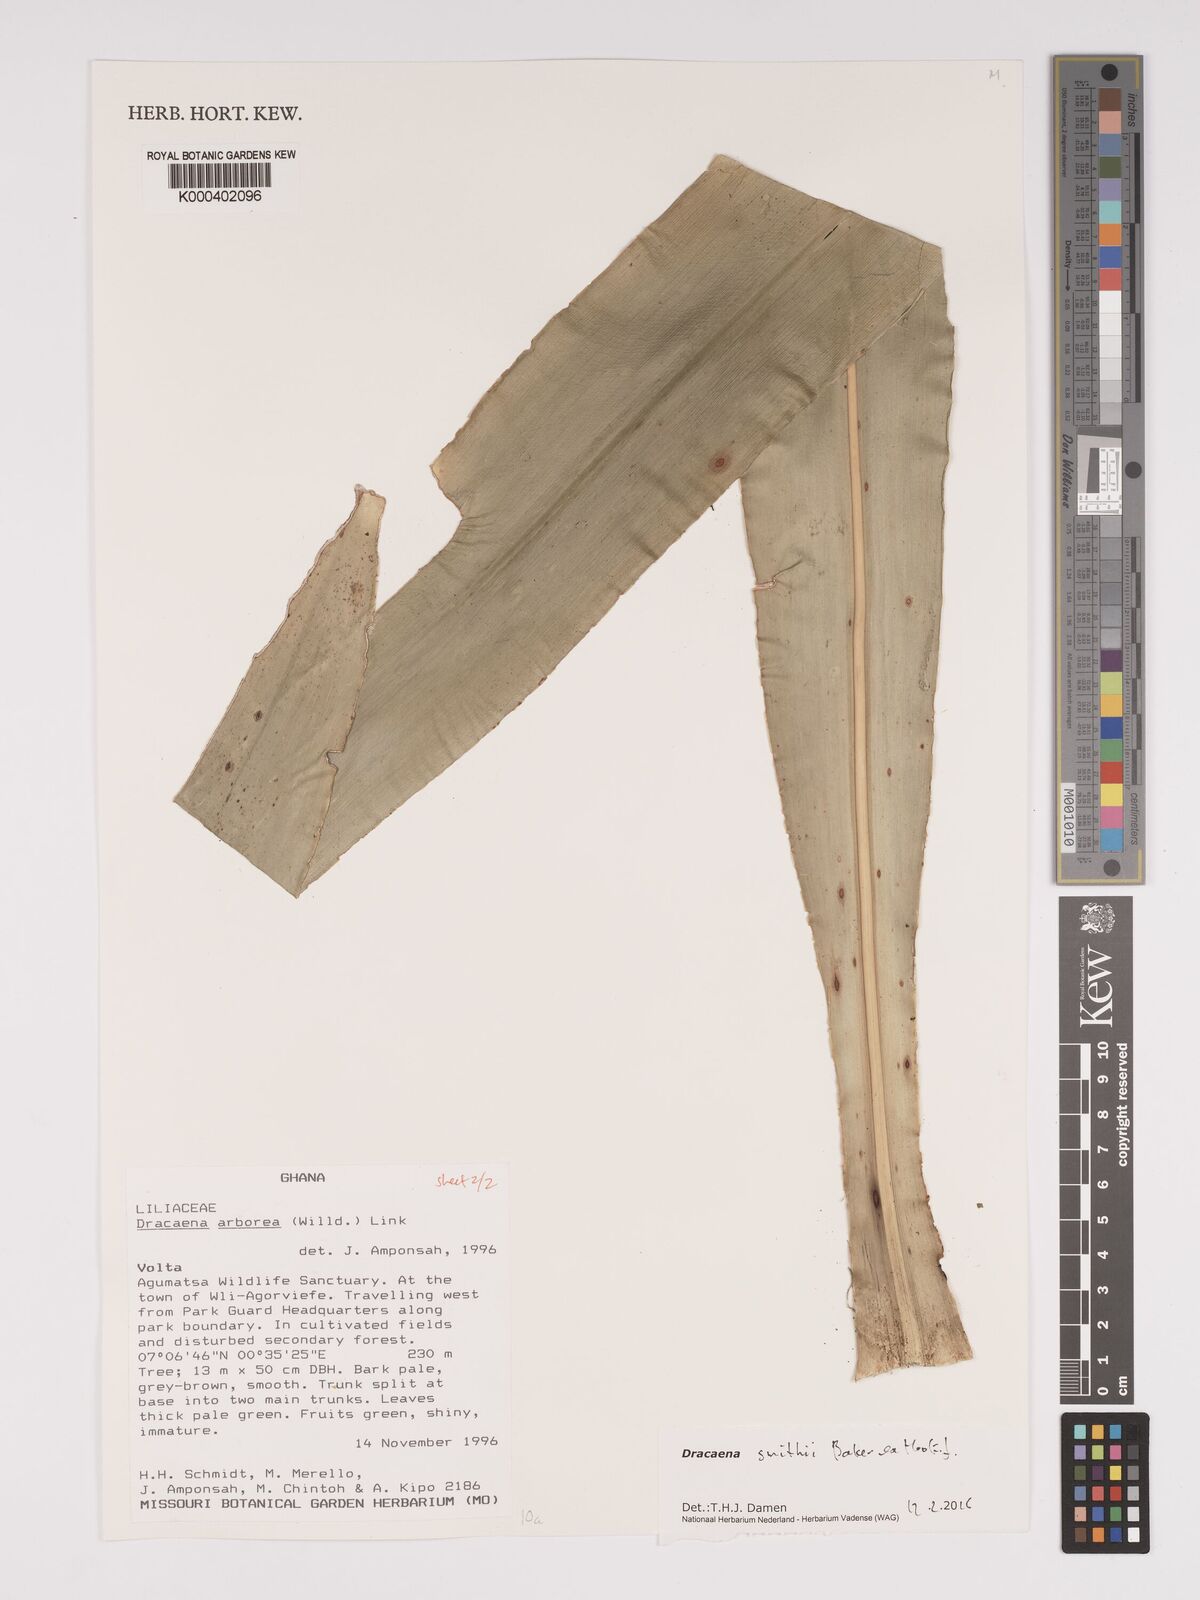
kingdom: Plantae
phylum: Tracheophyta
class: Liliopsida
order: Asparagales
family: Asparagaceae
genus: Dracaena
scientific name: Dracaena arborea
